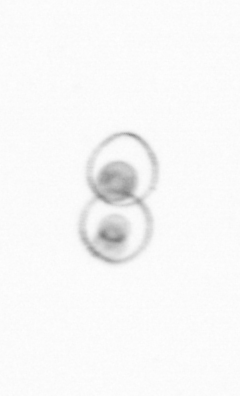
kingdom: Chromista
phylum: Myzozoa
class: Dinophyceae
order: Noctilucales
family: Noctilucaceae
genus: Noctiluca
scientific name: Noctiluca scintillans
